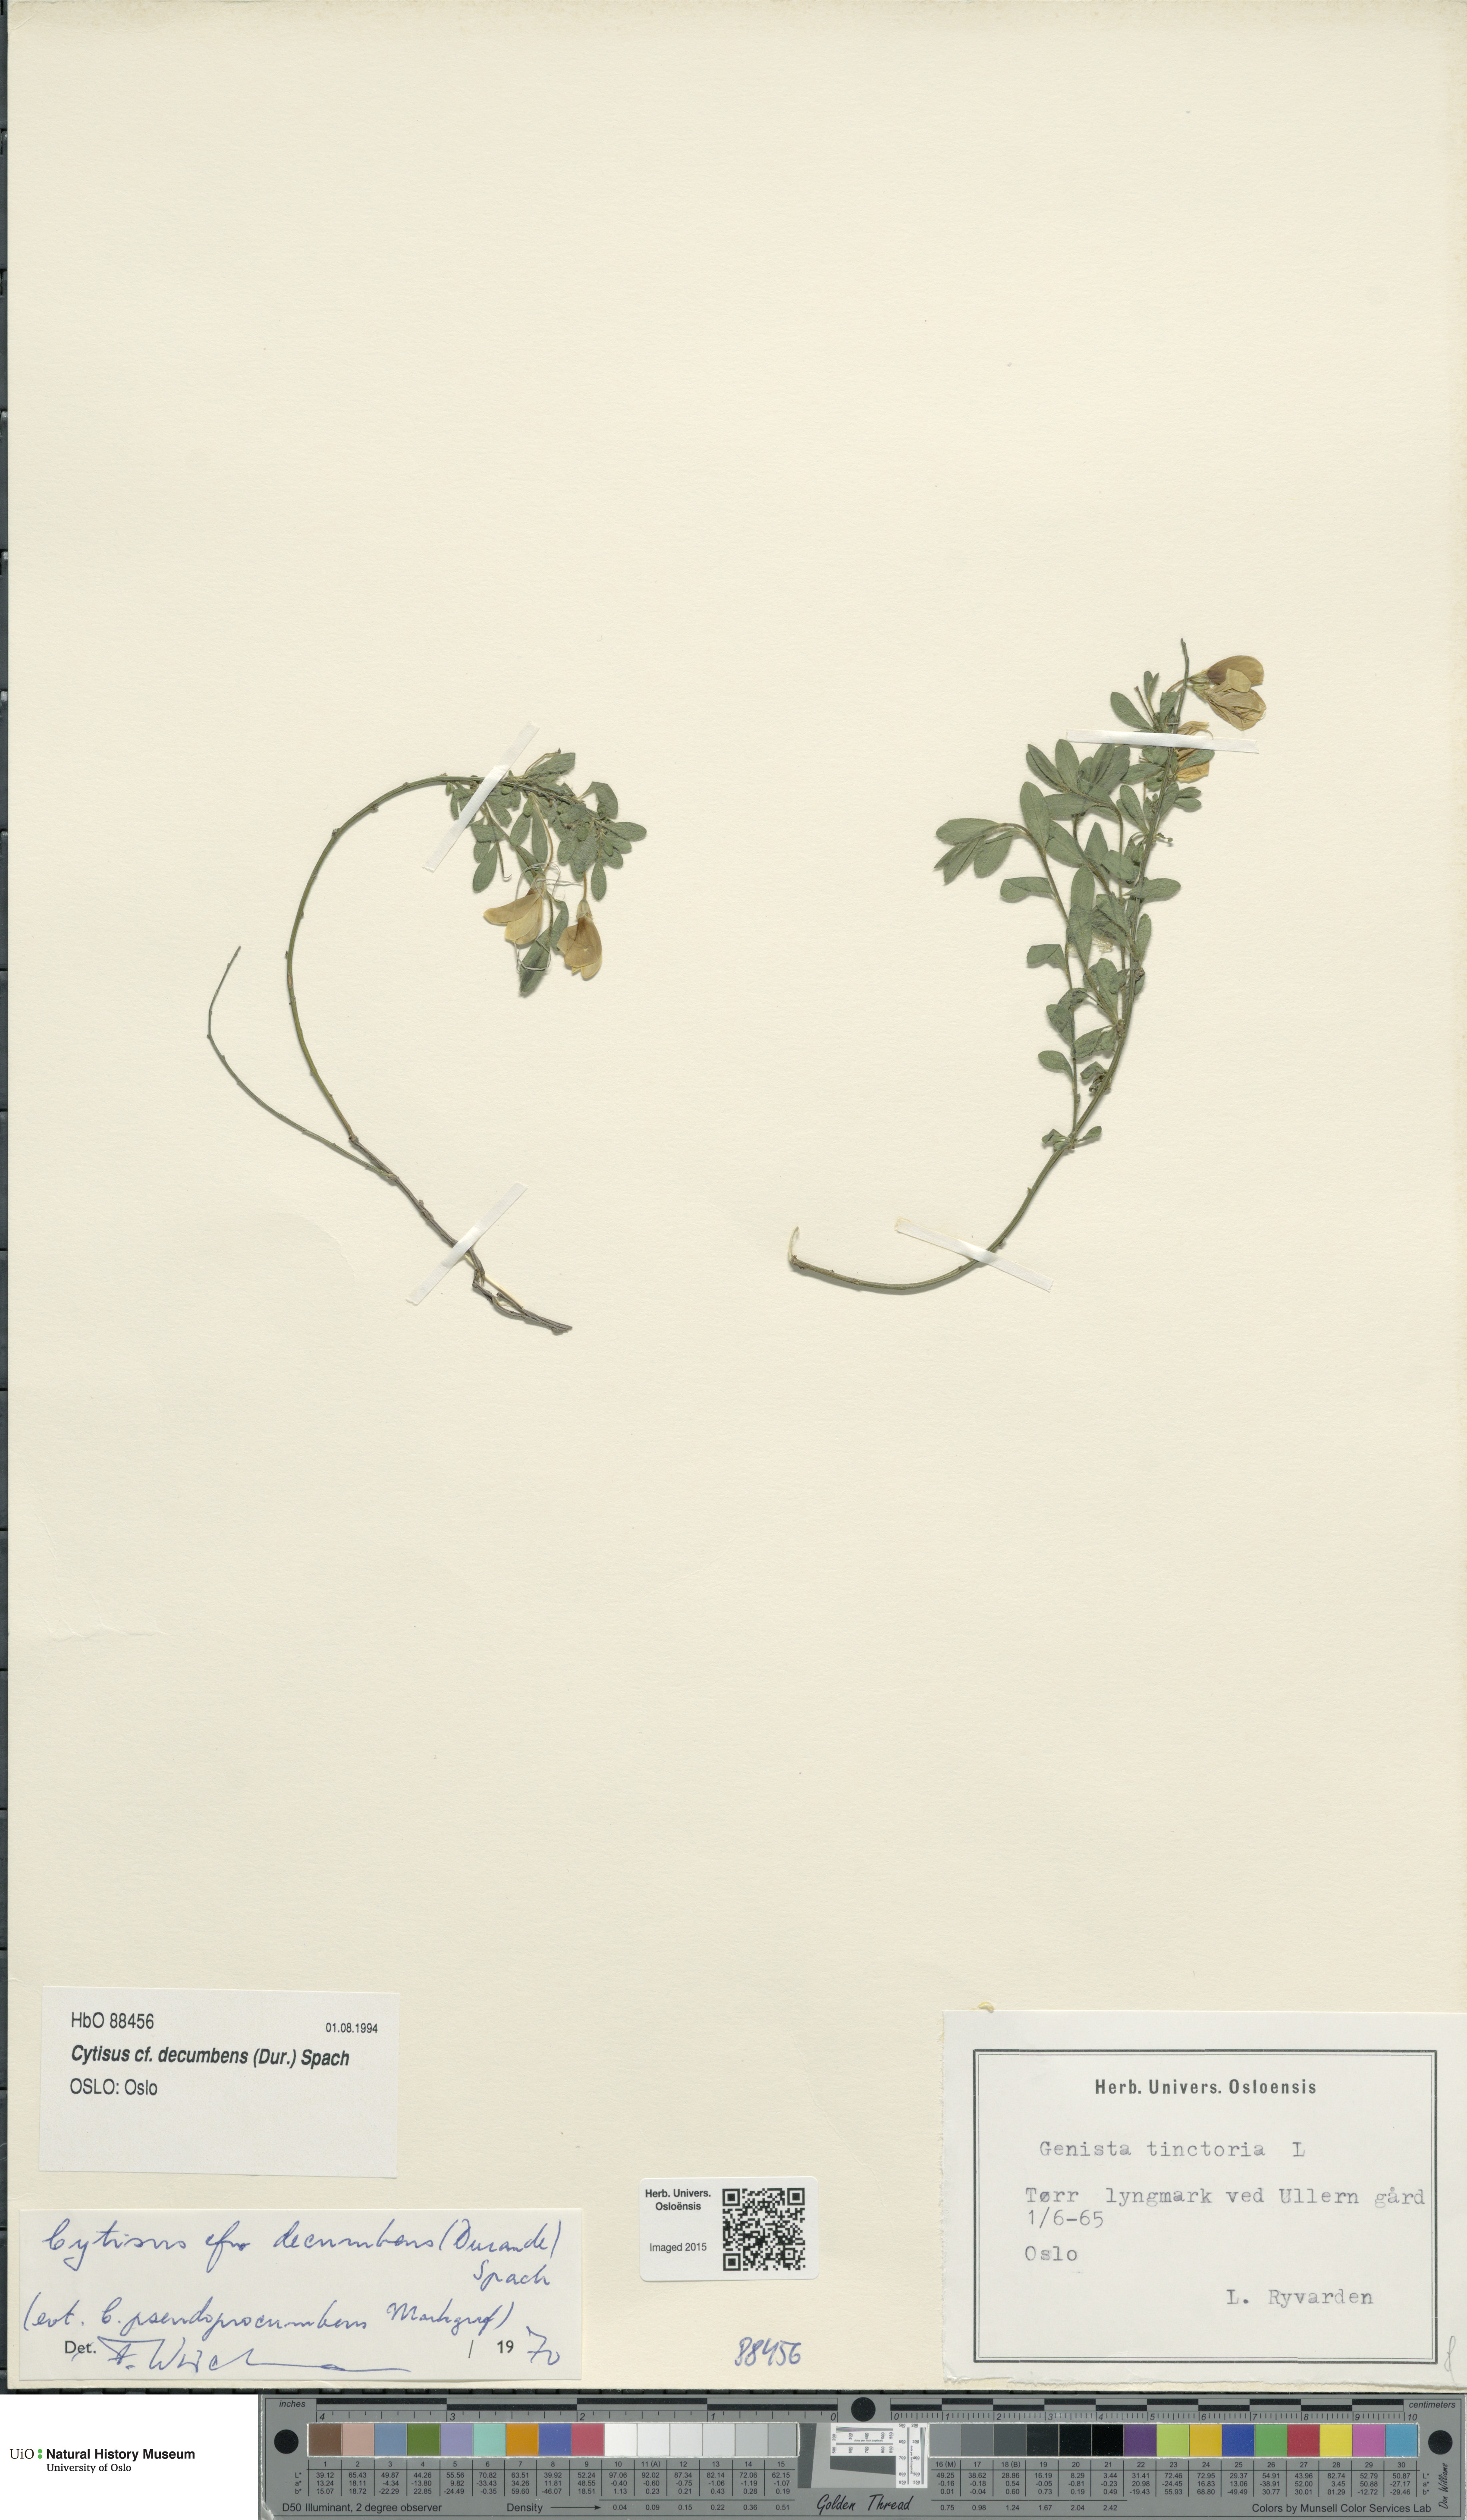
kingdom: Plantae
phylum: Tracheophyta
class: Magnoliopsida
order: Fabales
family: Fabaceae
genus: Cytisus
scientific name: Cytisus decumbens
